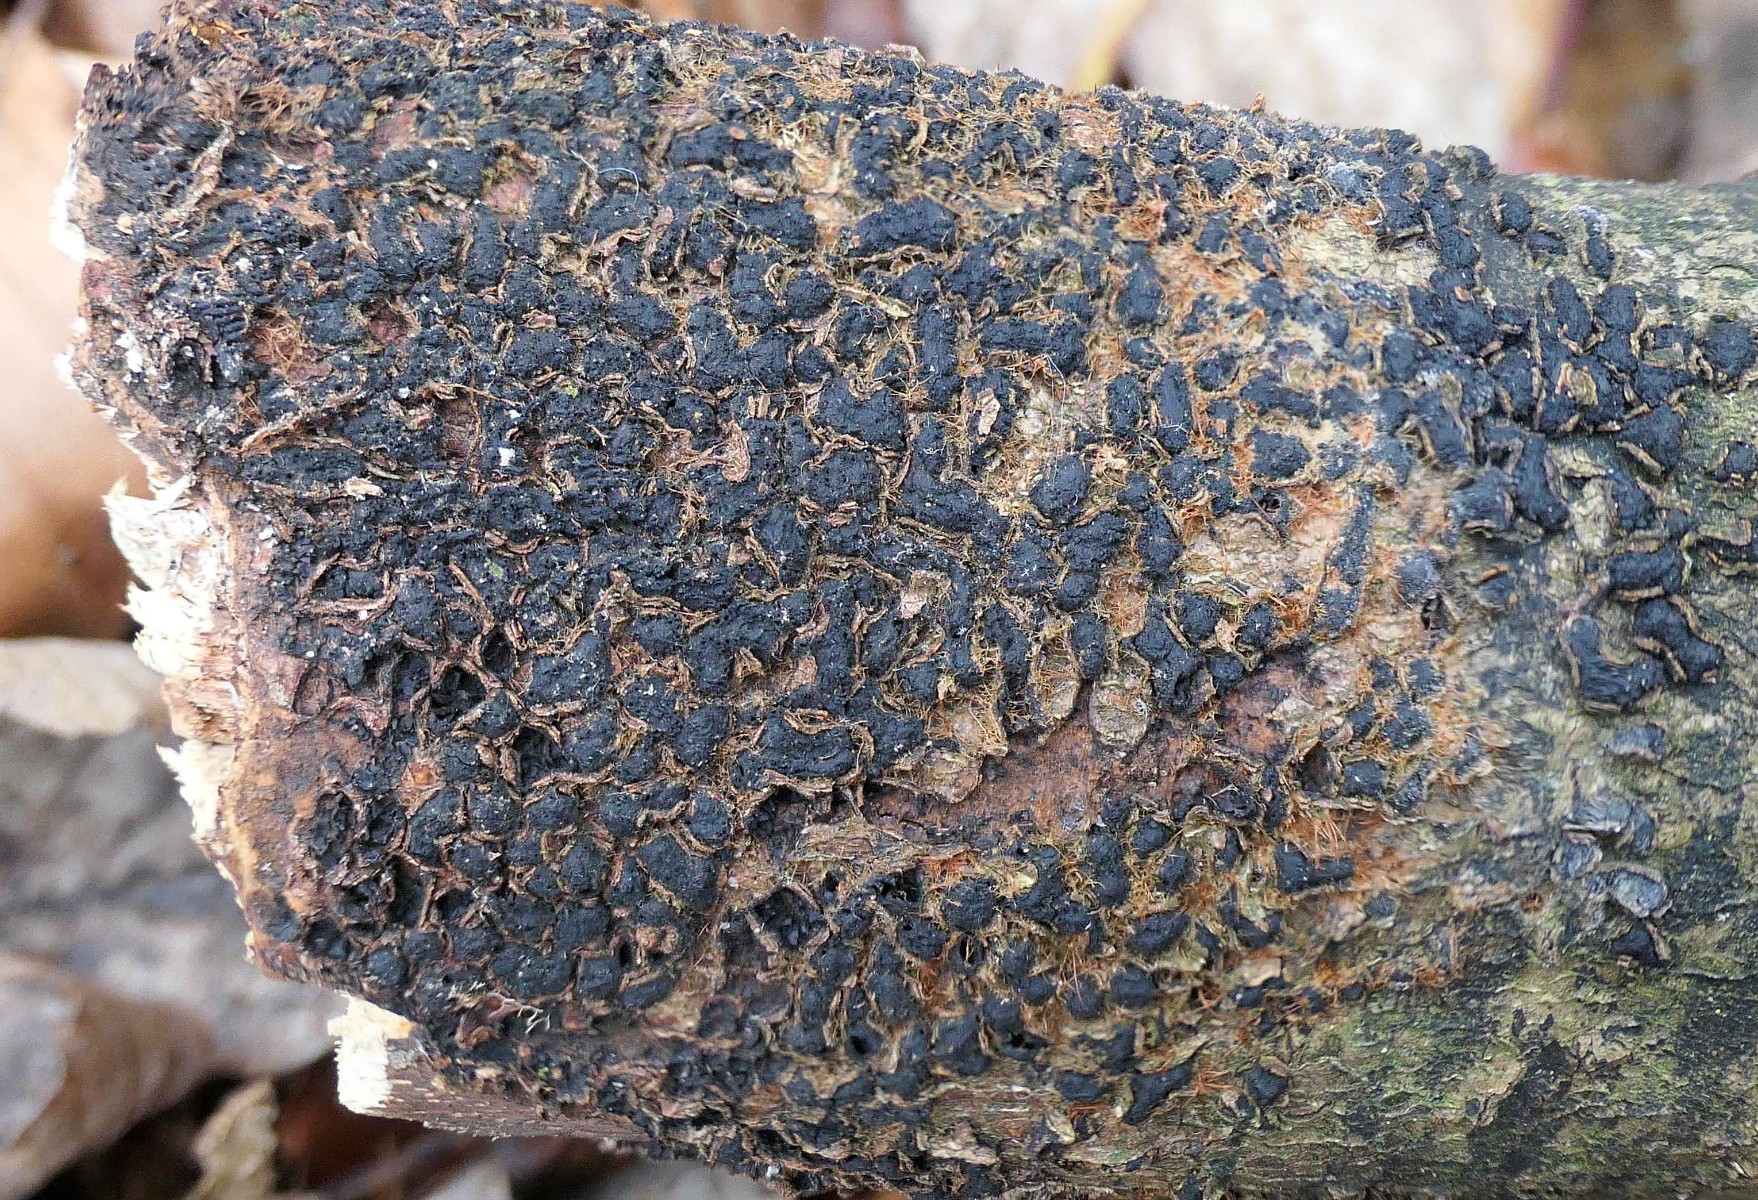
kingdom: Fungi
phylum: Ascomycota
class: Sordariomycetes
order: Xylariales
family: Melogrammataceae
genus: Melogramma
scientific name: Melogramma spiniferum
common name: bøgefod-kulhals
